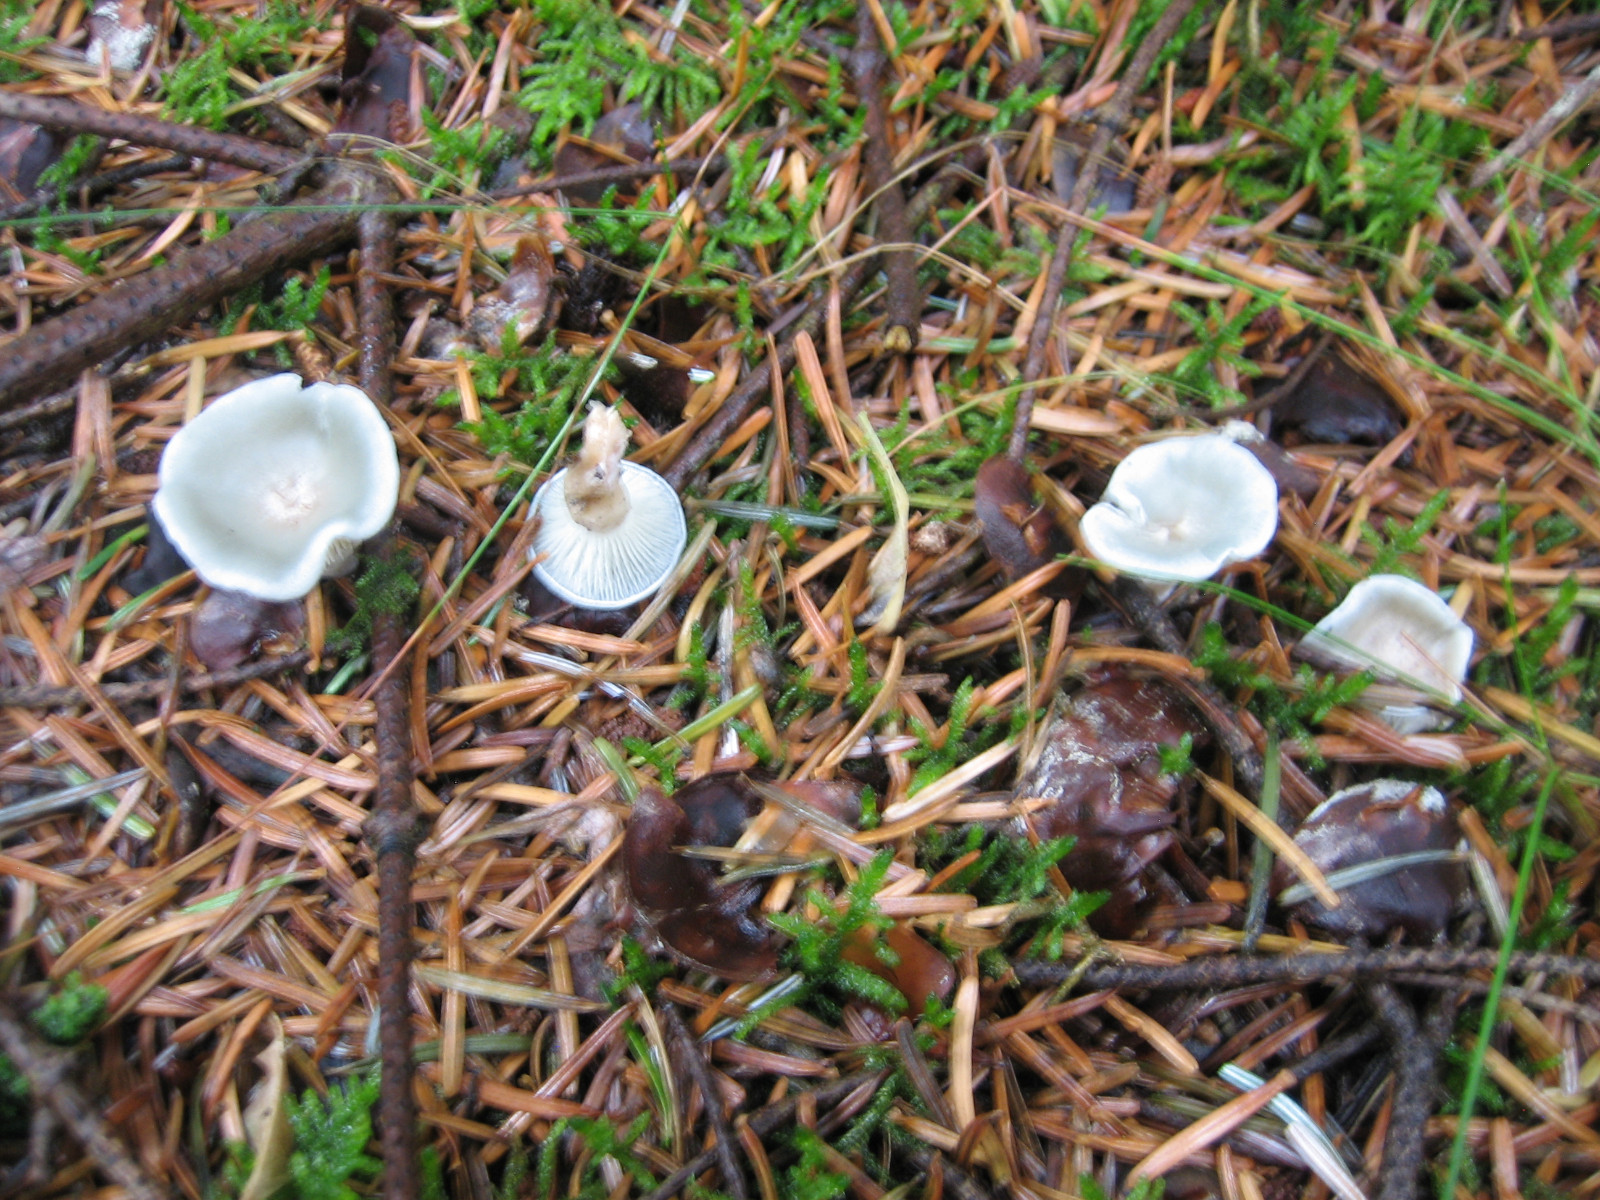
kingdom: Fungi
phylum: Basidiomycota
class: Agaricomycetes
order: Agaricales
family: Tricholomataceae
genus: Clitocybe
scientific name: Clitocybe odora
